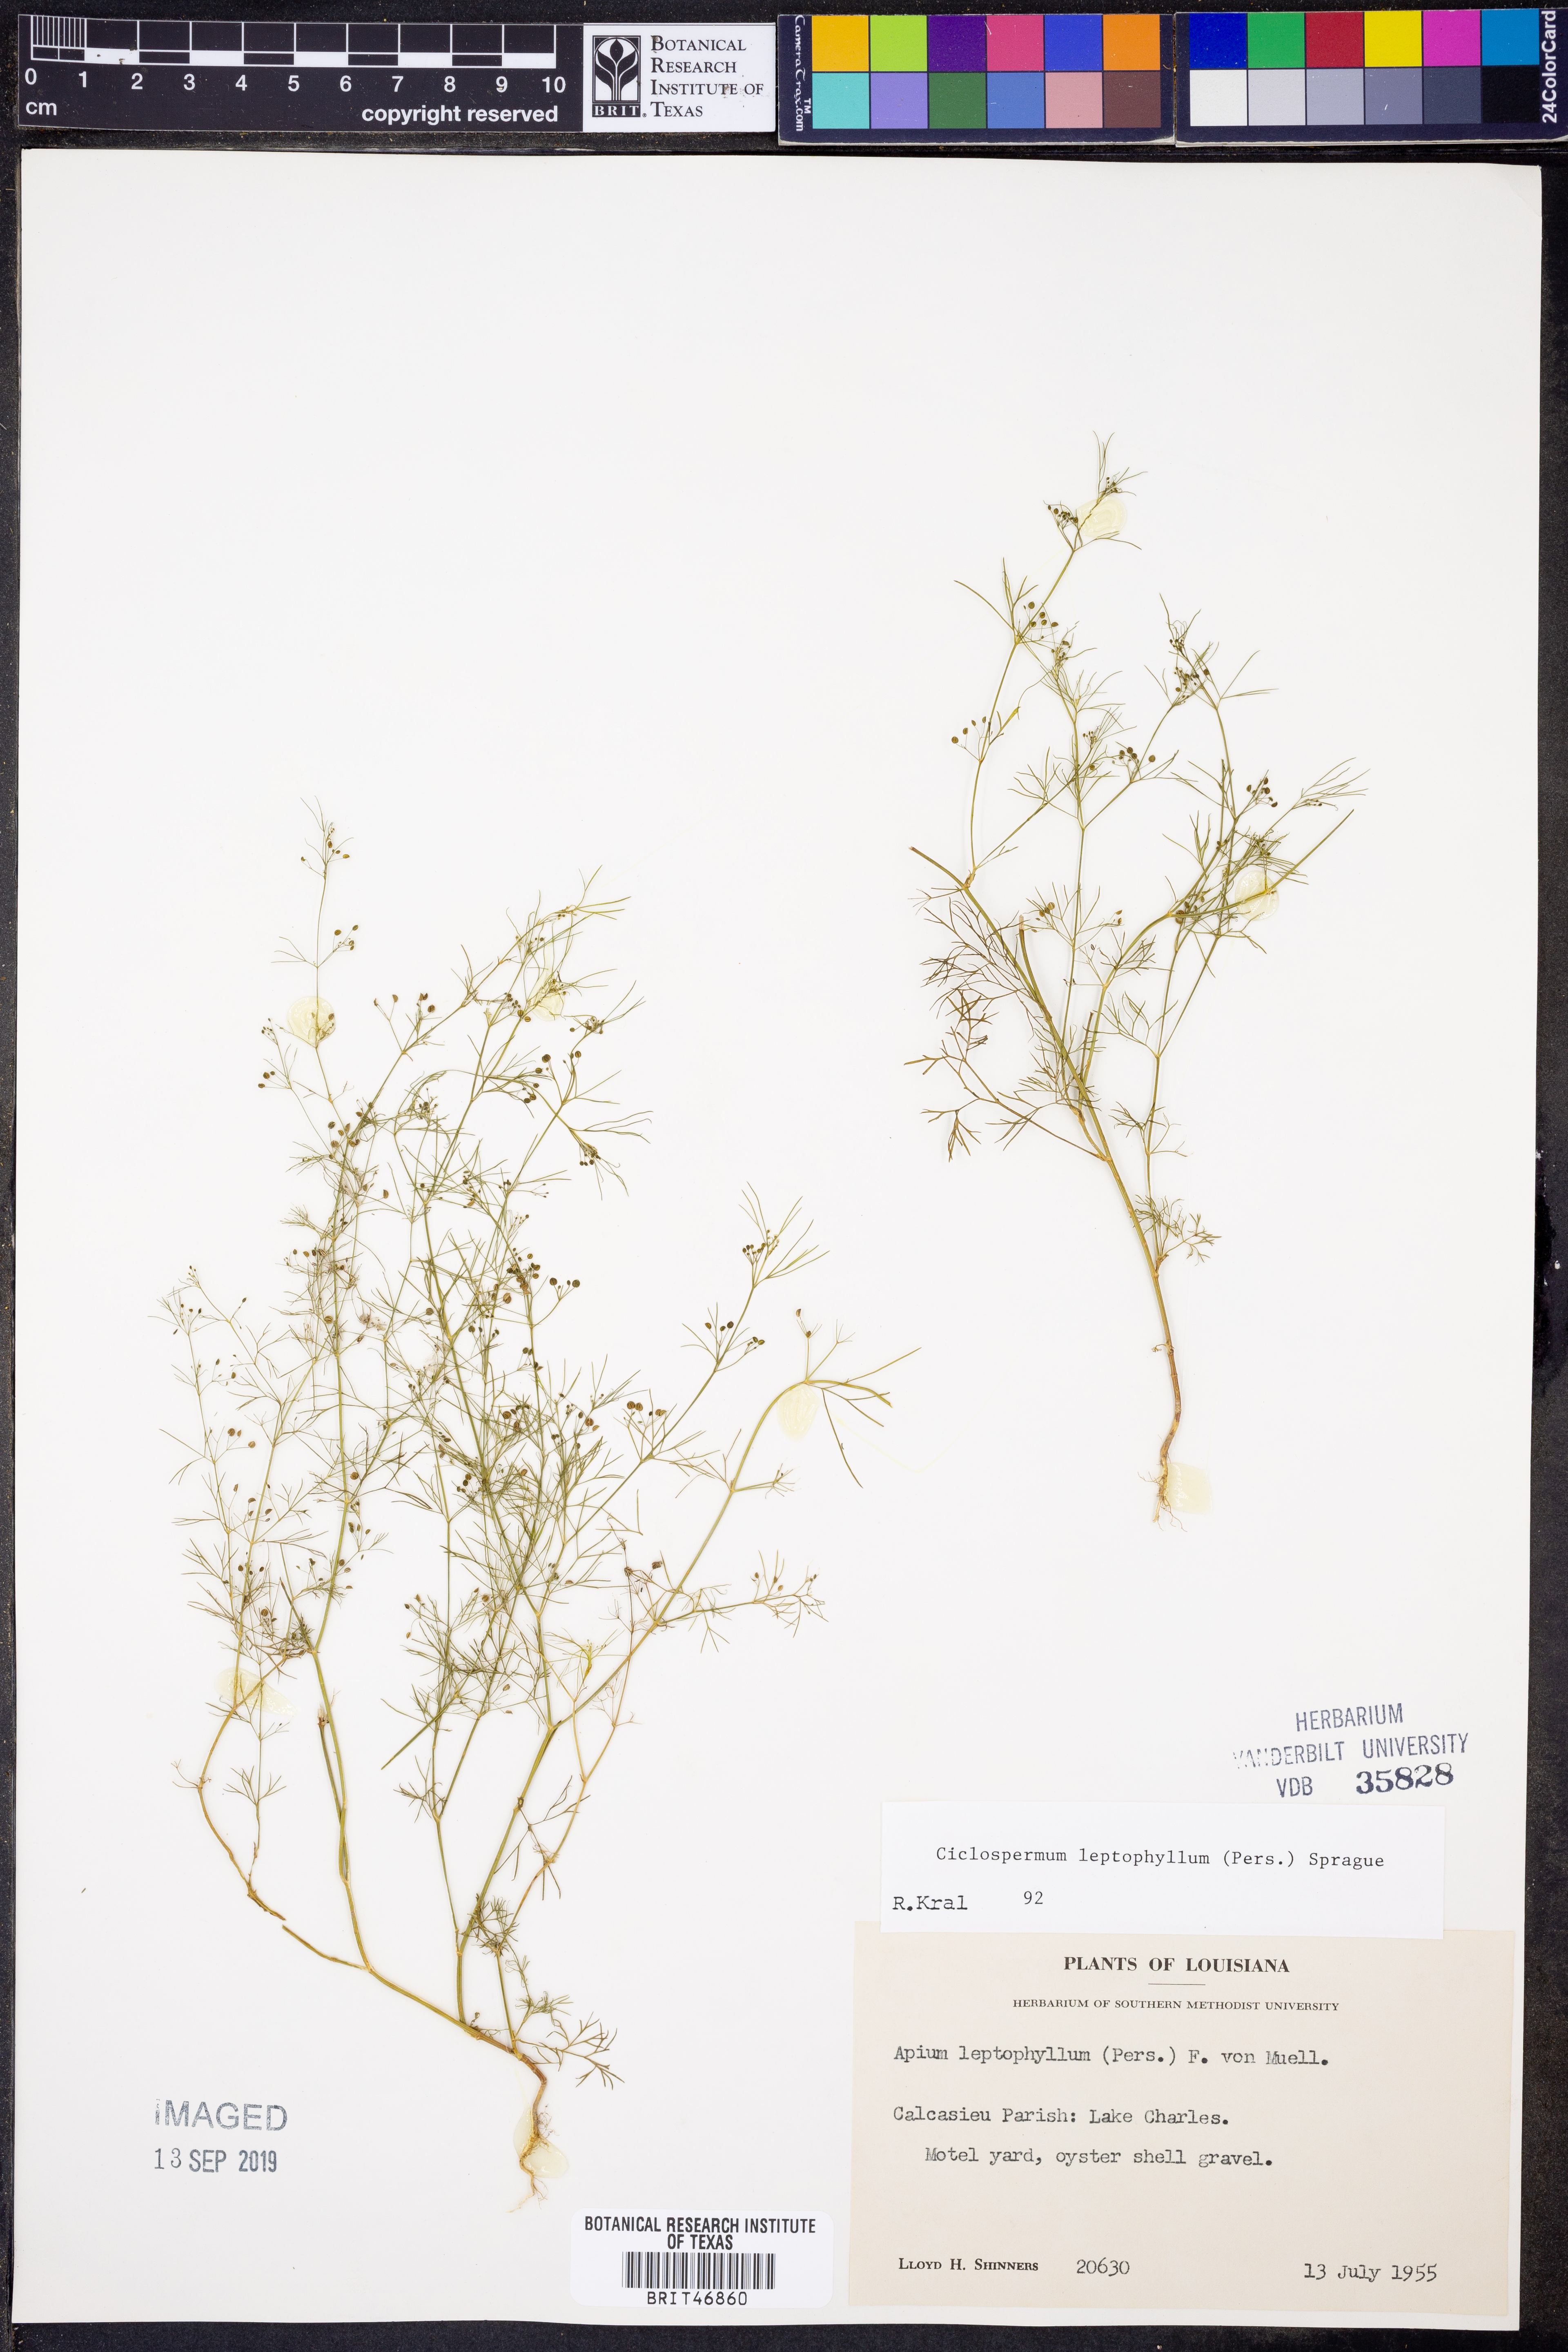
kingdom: Plantae
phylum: Tracheophyta
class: Magnoliopsida
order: Apiales
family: Apiaceae
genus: Cyclospermum
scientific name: Cyclospermum leptophyllum
